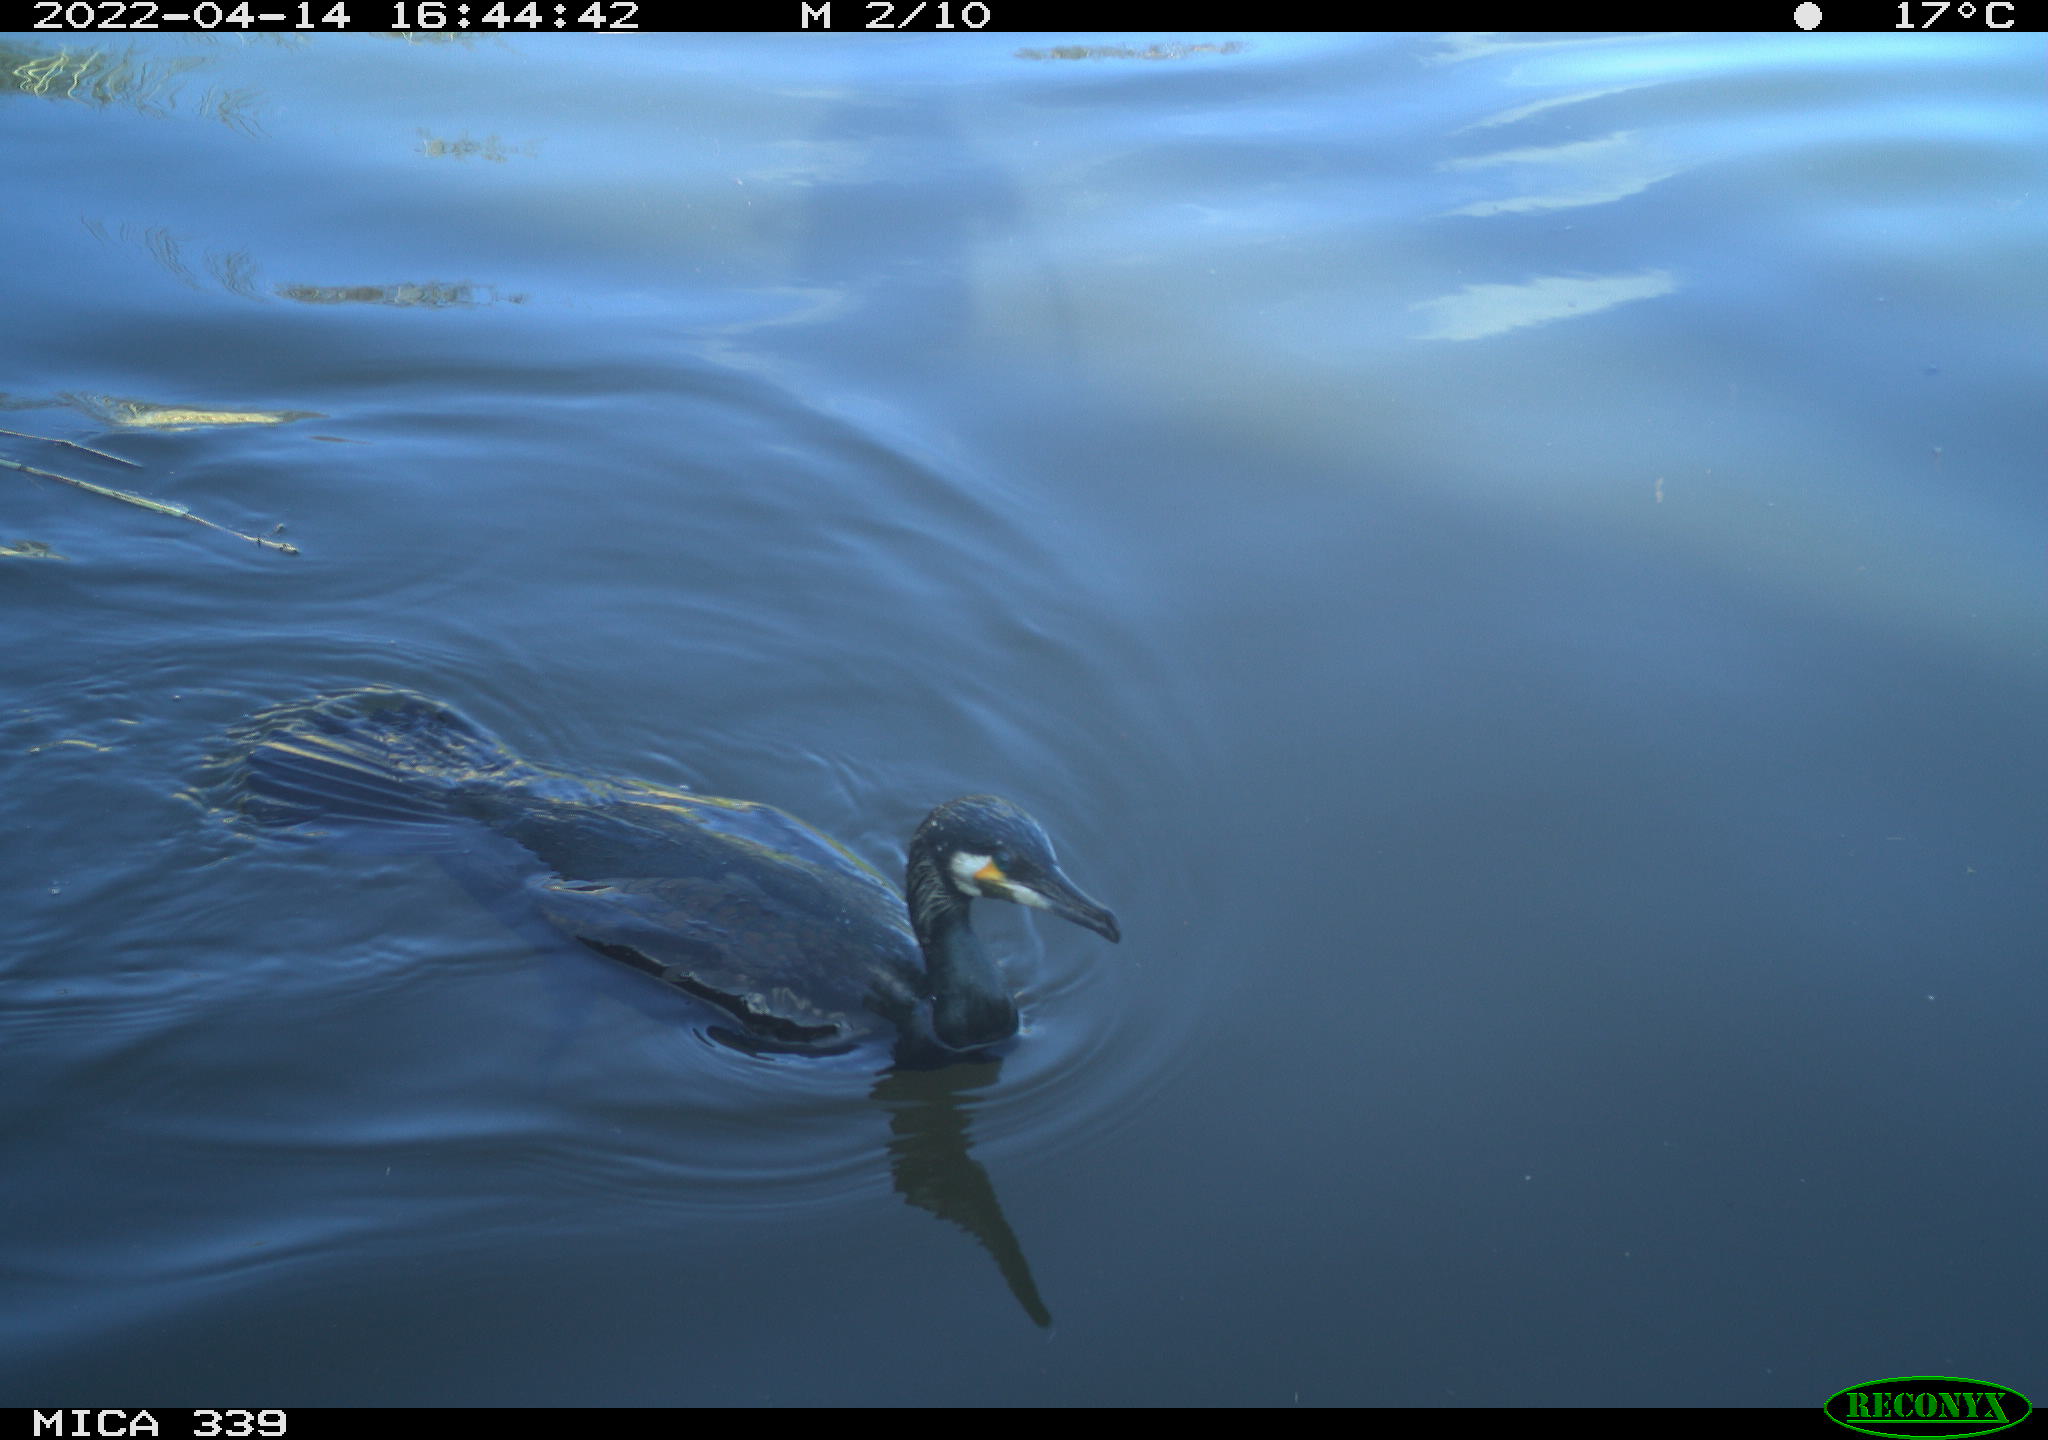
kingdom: Animalia
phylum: Chordata
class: Aves
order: Suliformes
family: Phalacrocoracidae
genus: Phalacrocorax
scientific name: Phalacrocorax carbo
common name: Great cormorant
